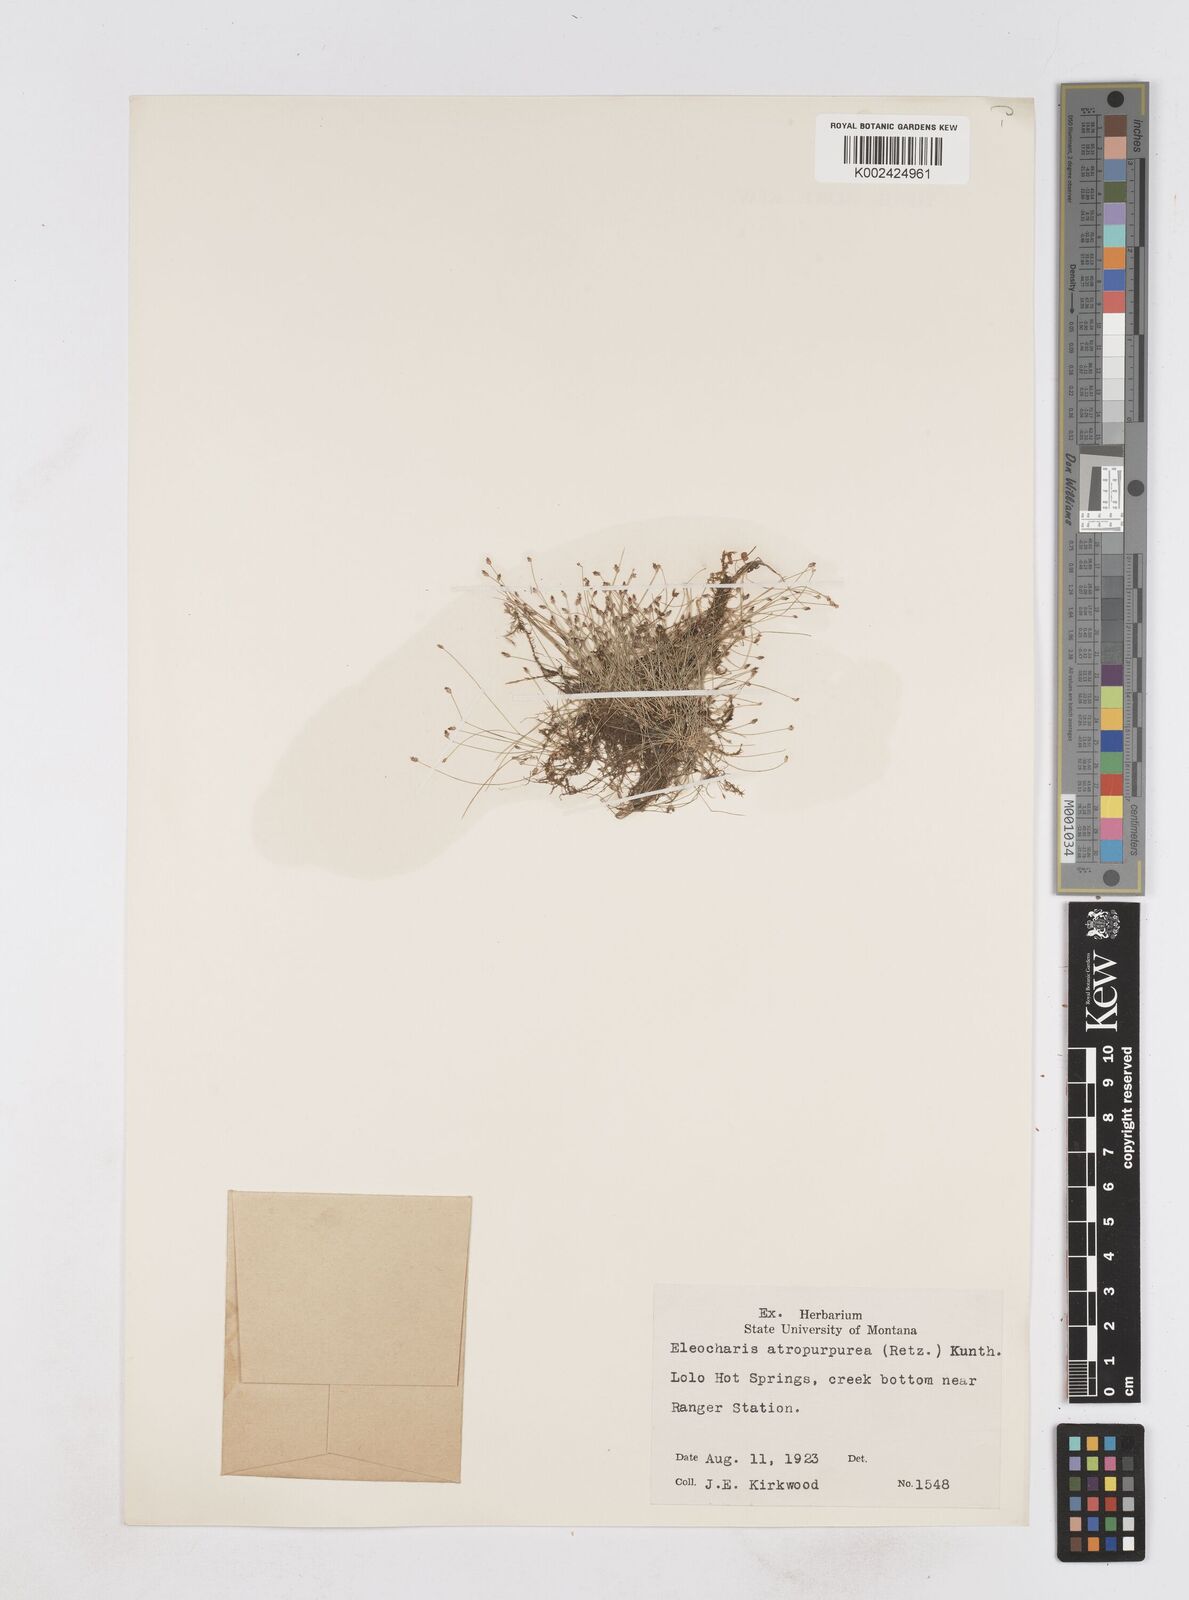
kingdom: Plantae
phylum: Tracheophyta
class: Liliopsida
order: Poales
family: Cyperaceae
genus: Eleocharis
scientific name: Eleocharis atropurpurea
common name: Purple spikerush
